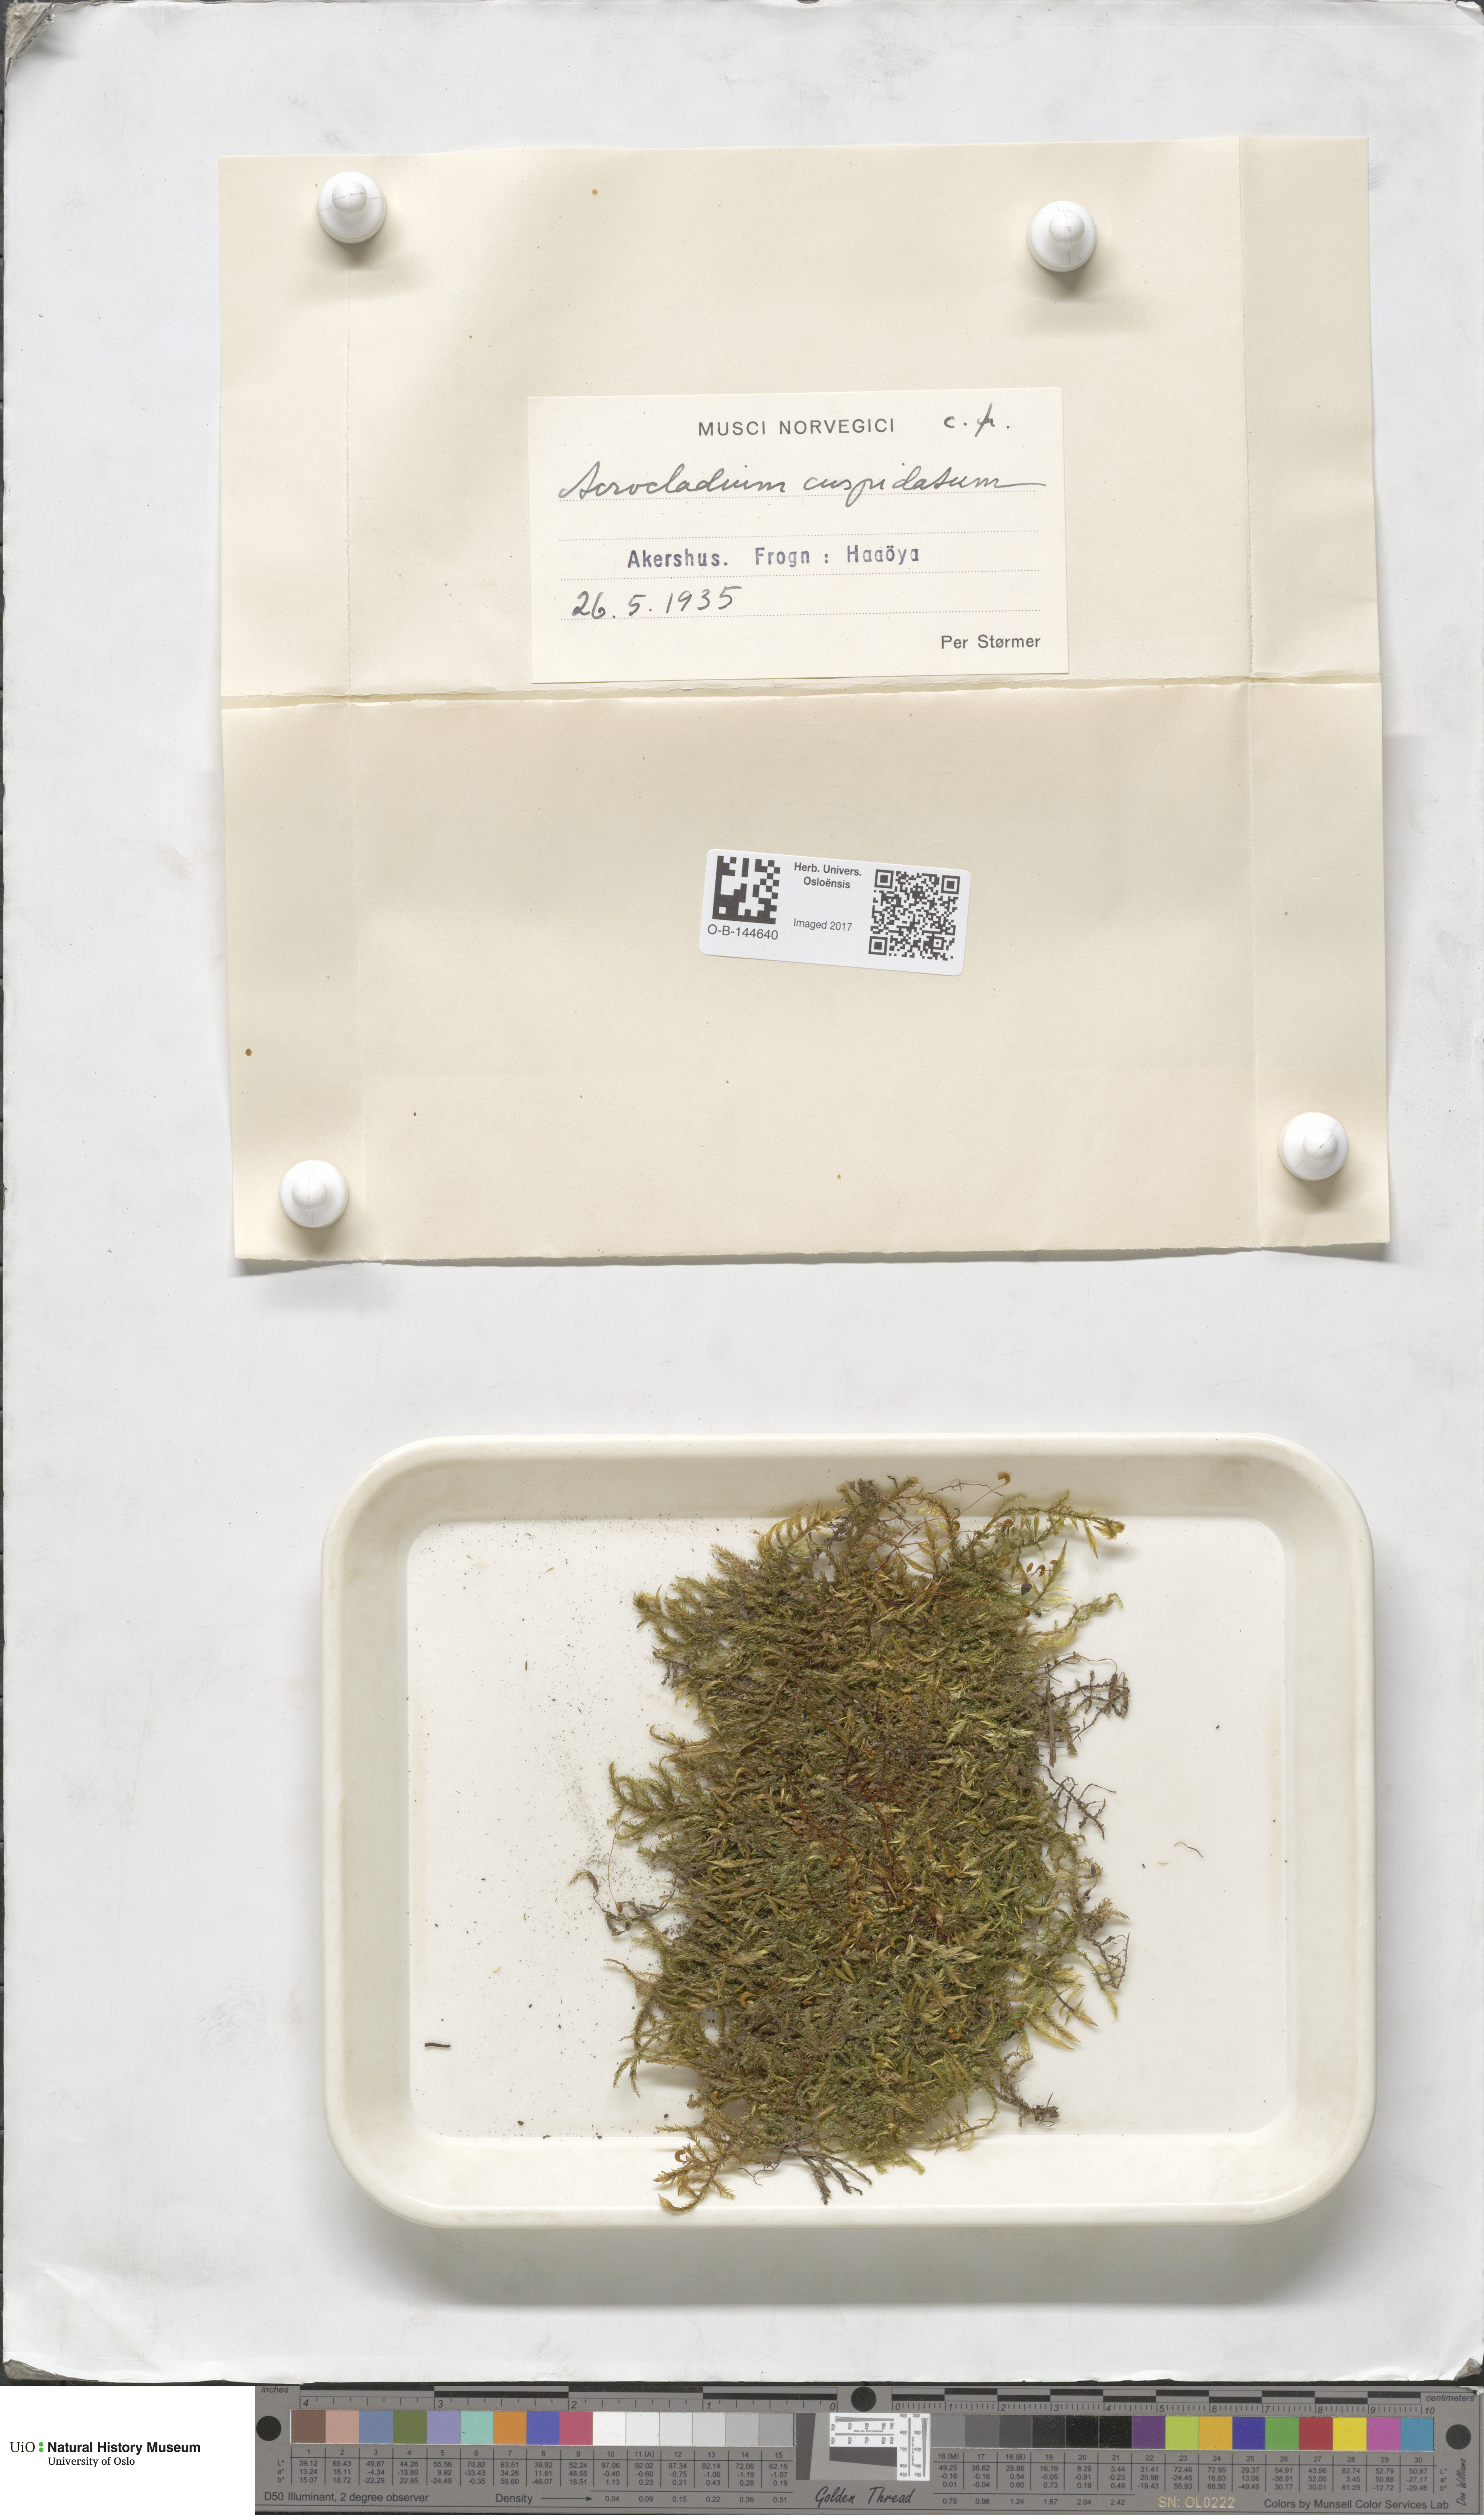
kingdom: Plantae
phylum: Bryophyta
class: Bryopsida
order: Hypnales
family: Pylaisiaceae
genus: Calliergonella
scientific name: Calliergonella cuspidata
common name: Common large wetland moss
